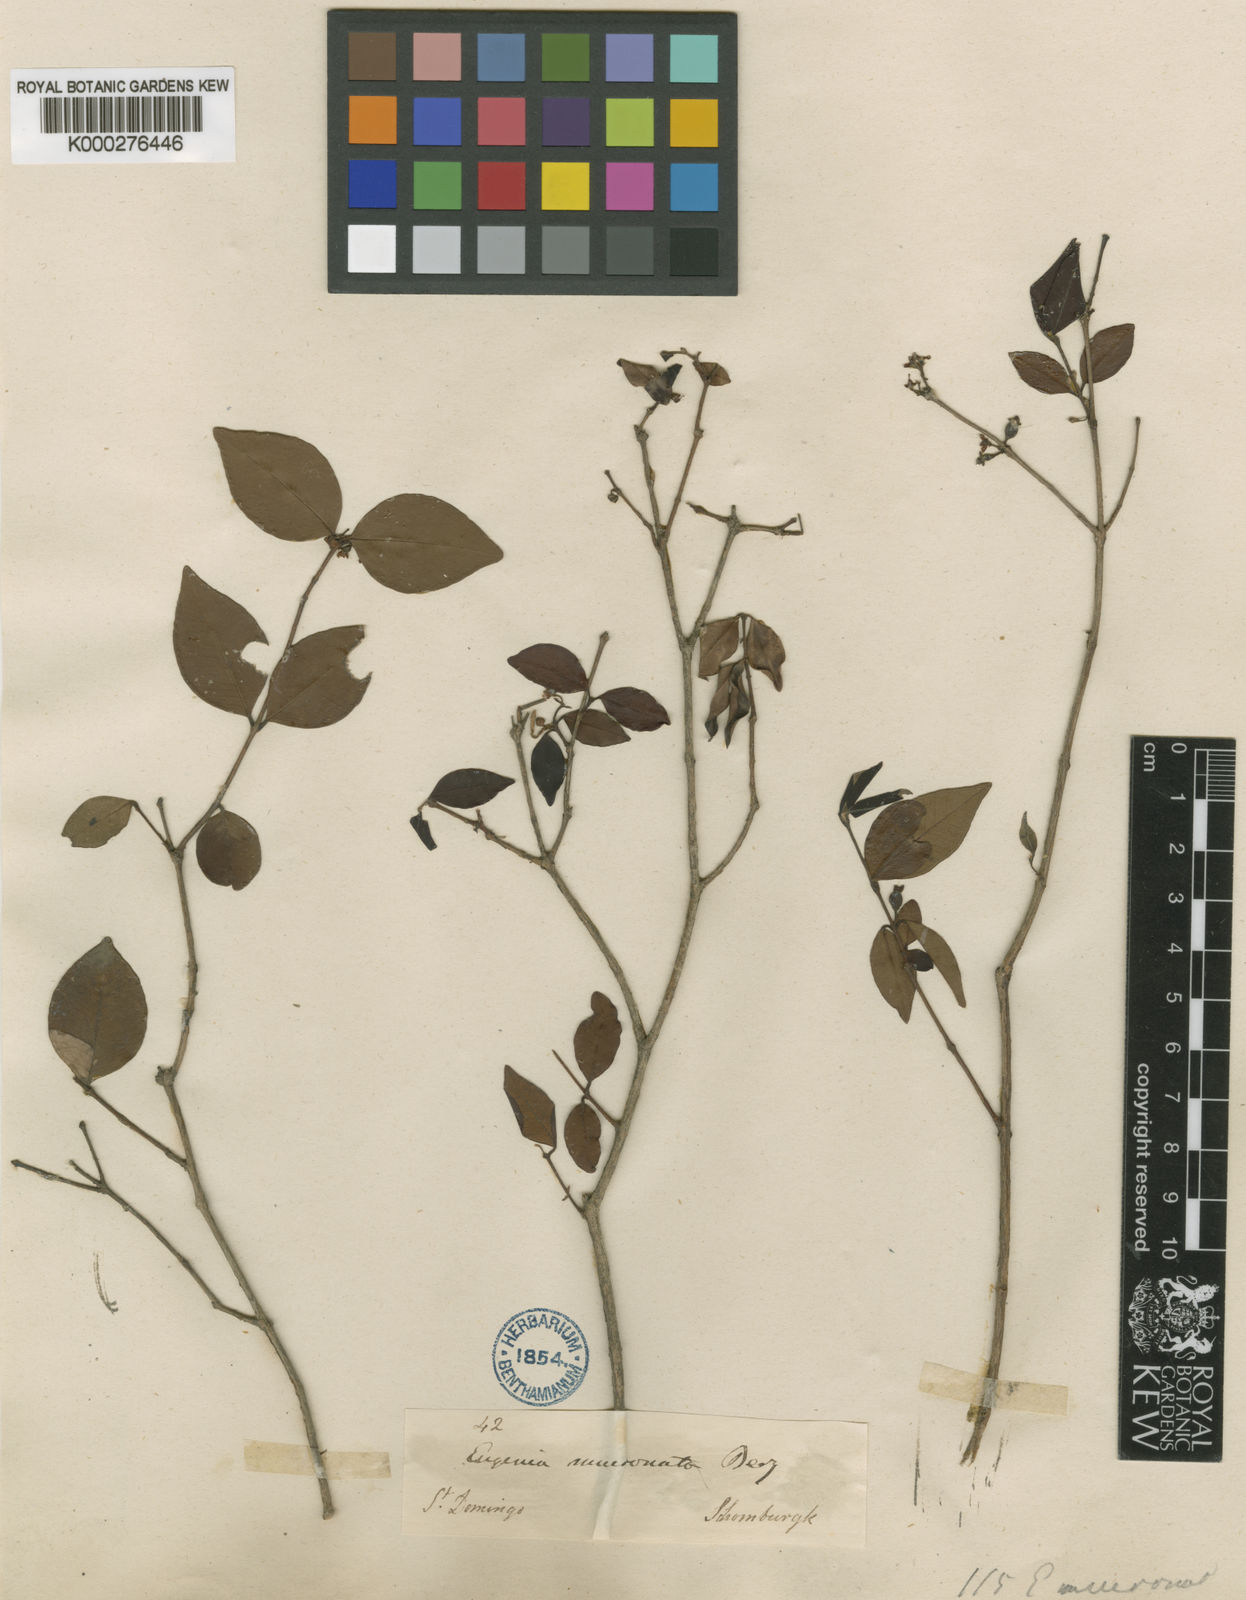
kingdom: Plantae
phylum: Tracheophyta
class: Magnoliopsida
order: Myrtales
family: Myrtaceae
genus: Eugenia
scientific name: Eugenia mucronata
